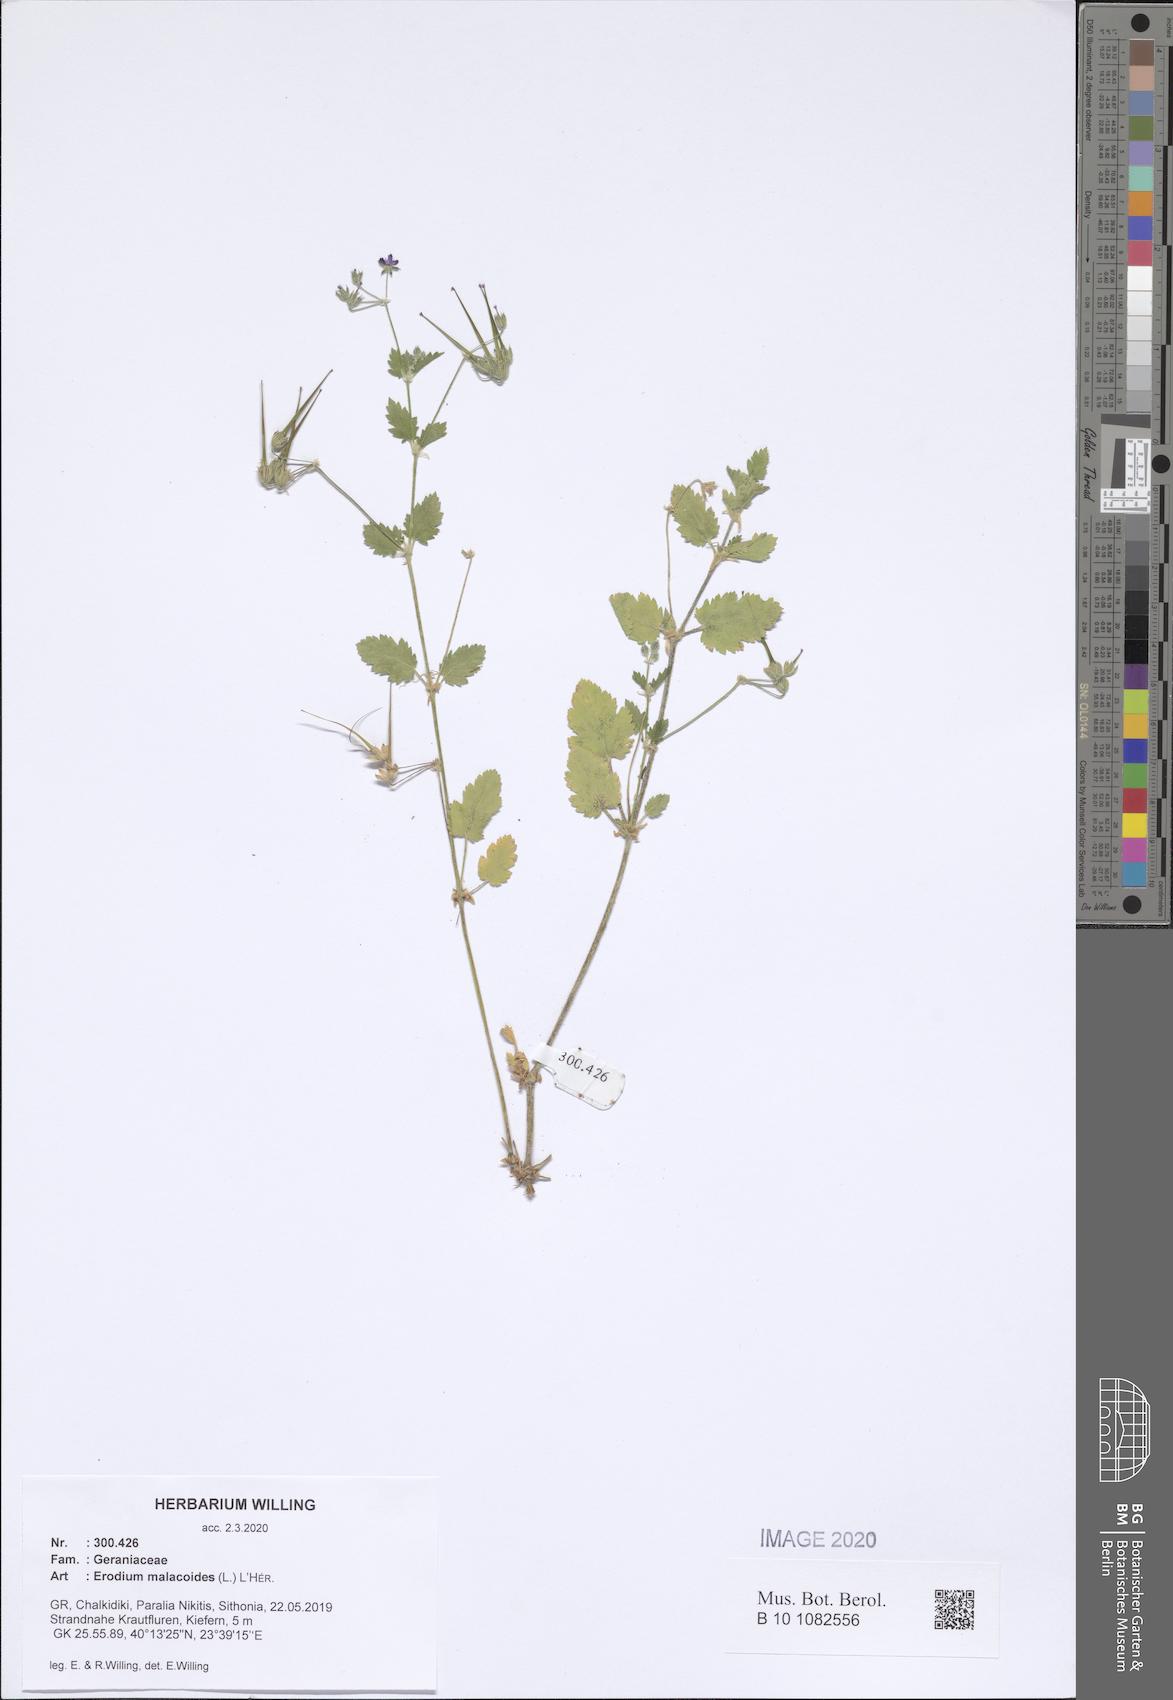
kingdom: Plantae
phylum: Tracheophyta
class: Magnoliopsida
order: Geraniales
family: Geraniaceae
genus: Erodium
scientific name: Erodium malacoides
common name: Soft stork's-bill
